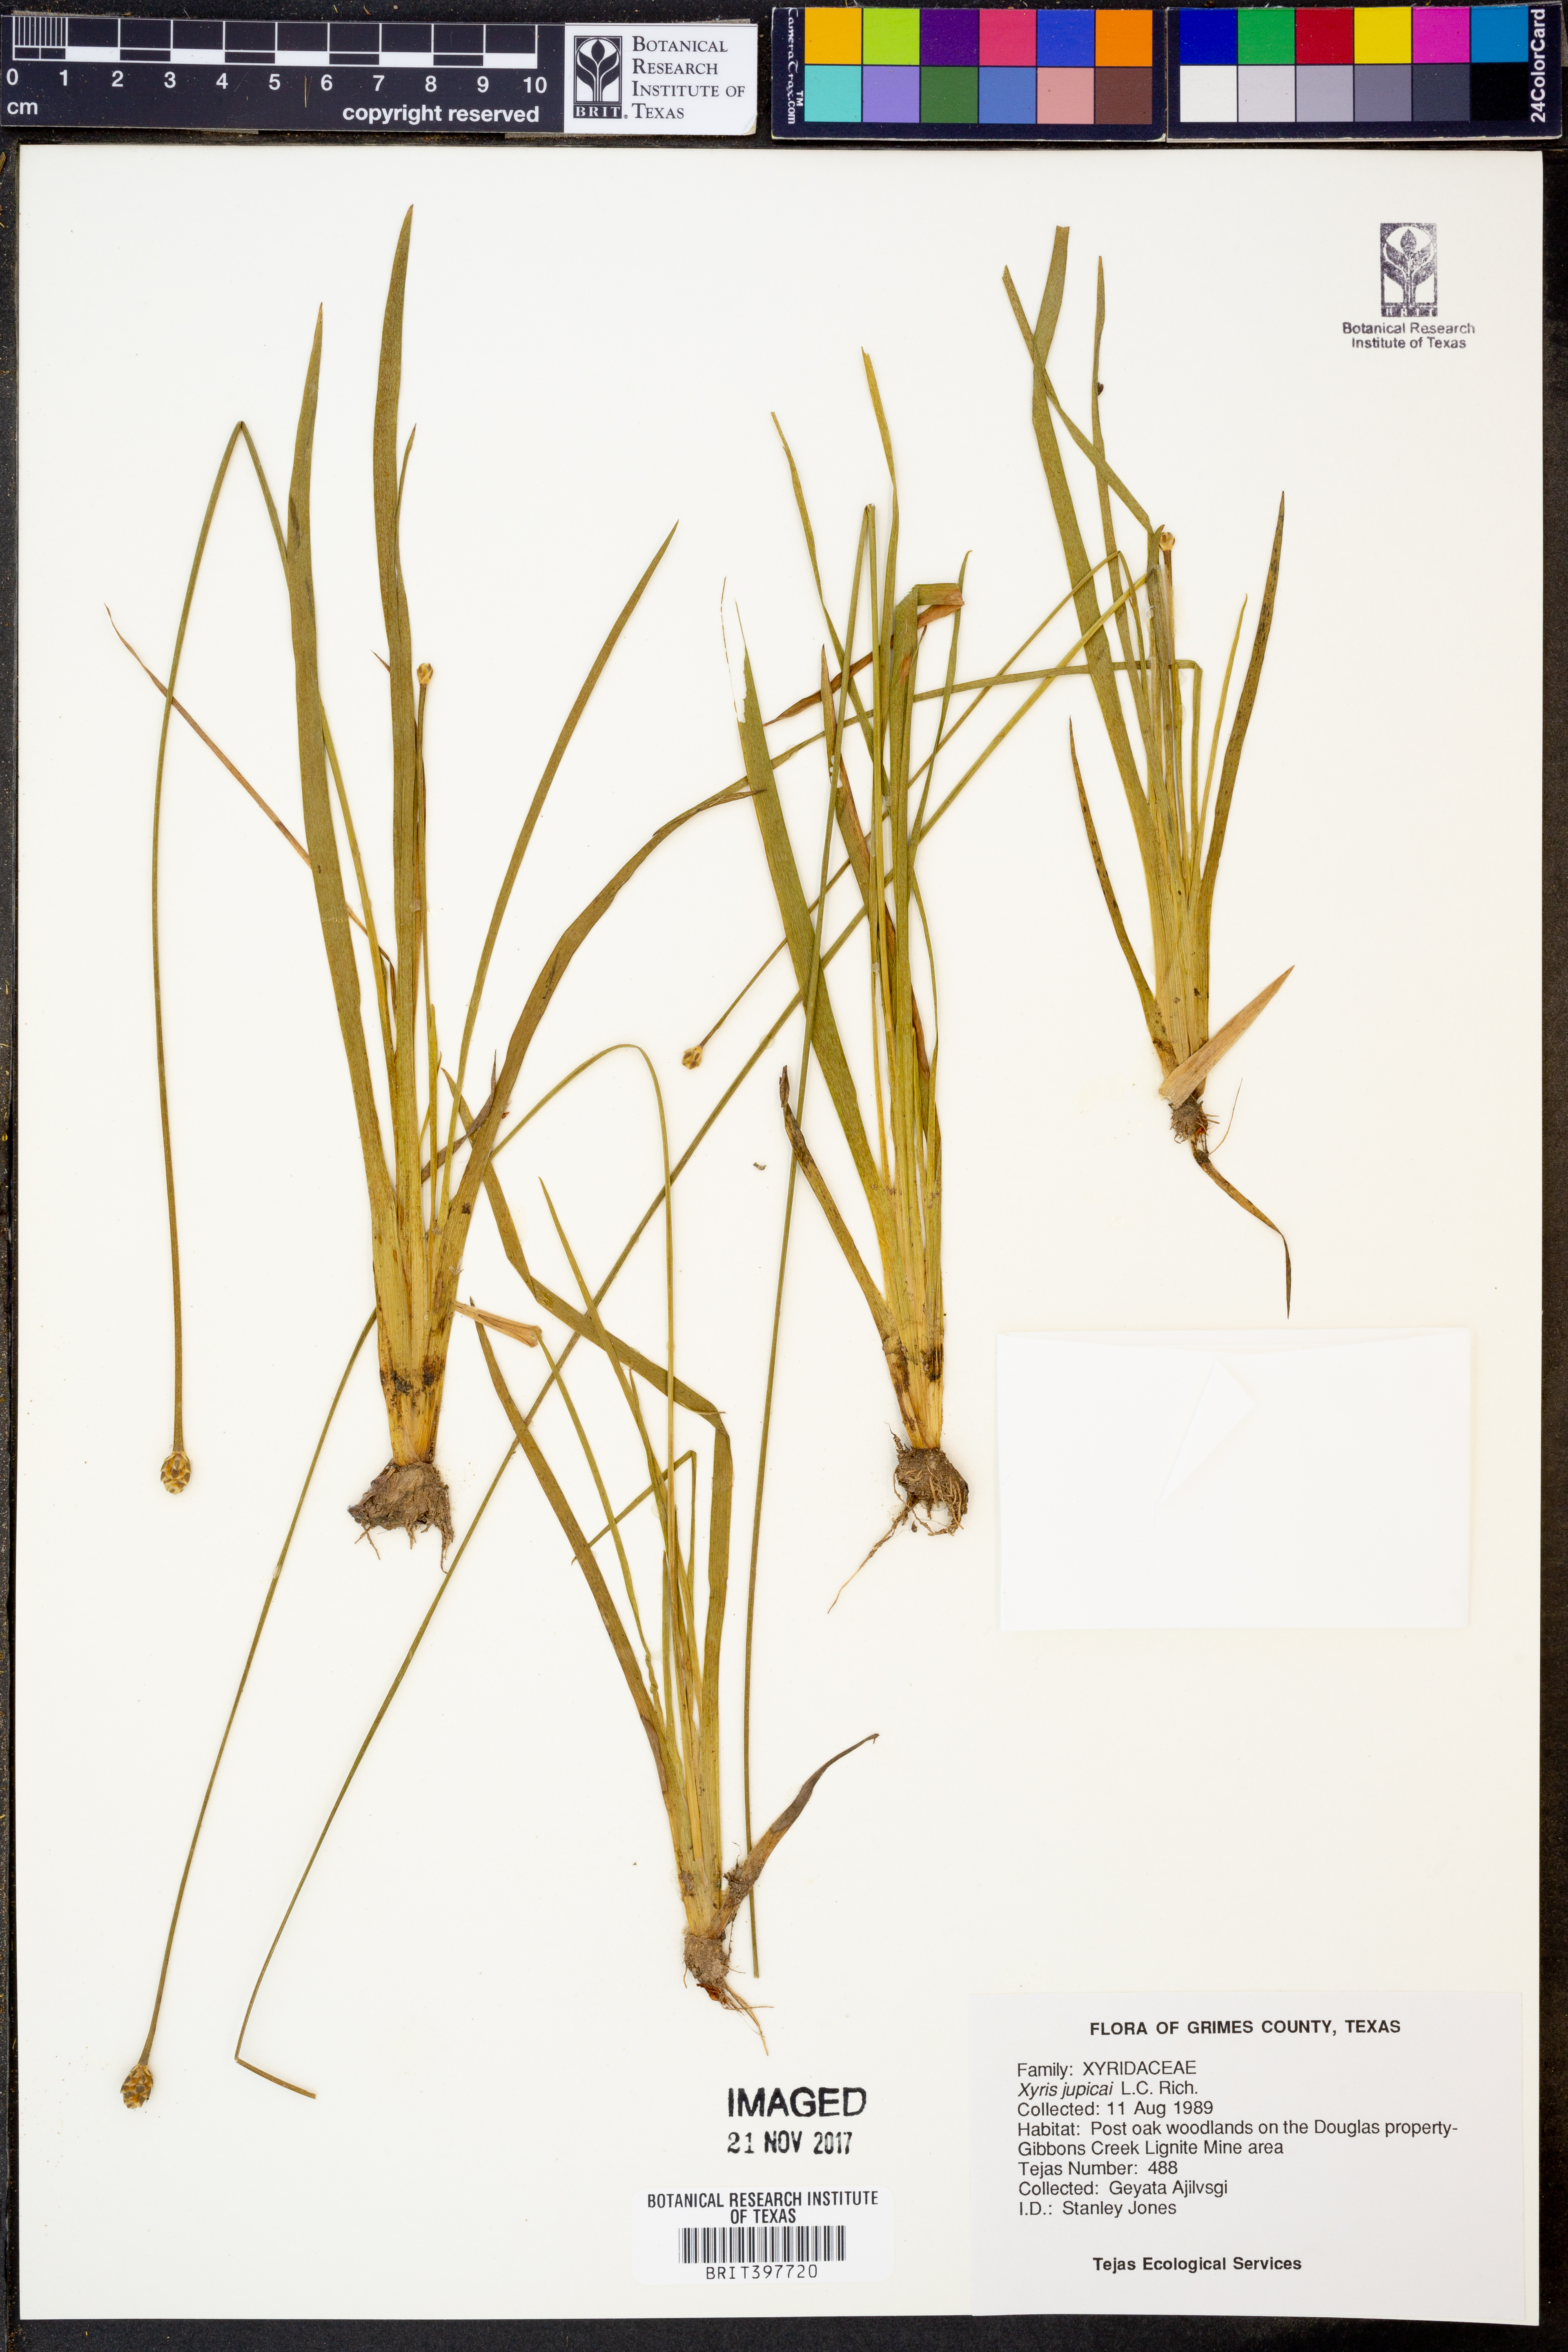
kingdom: Plantae
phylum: Tracheophyta
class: Liliopsida
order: Poales
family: Xyridaceae
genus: Xyris
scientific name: Xyris jupicai
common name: Richard's yelloweyed grass
